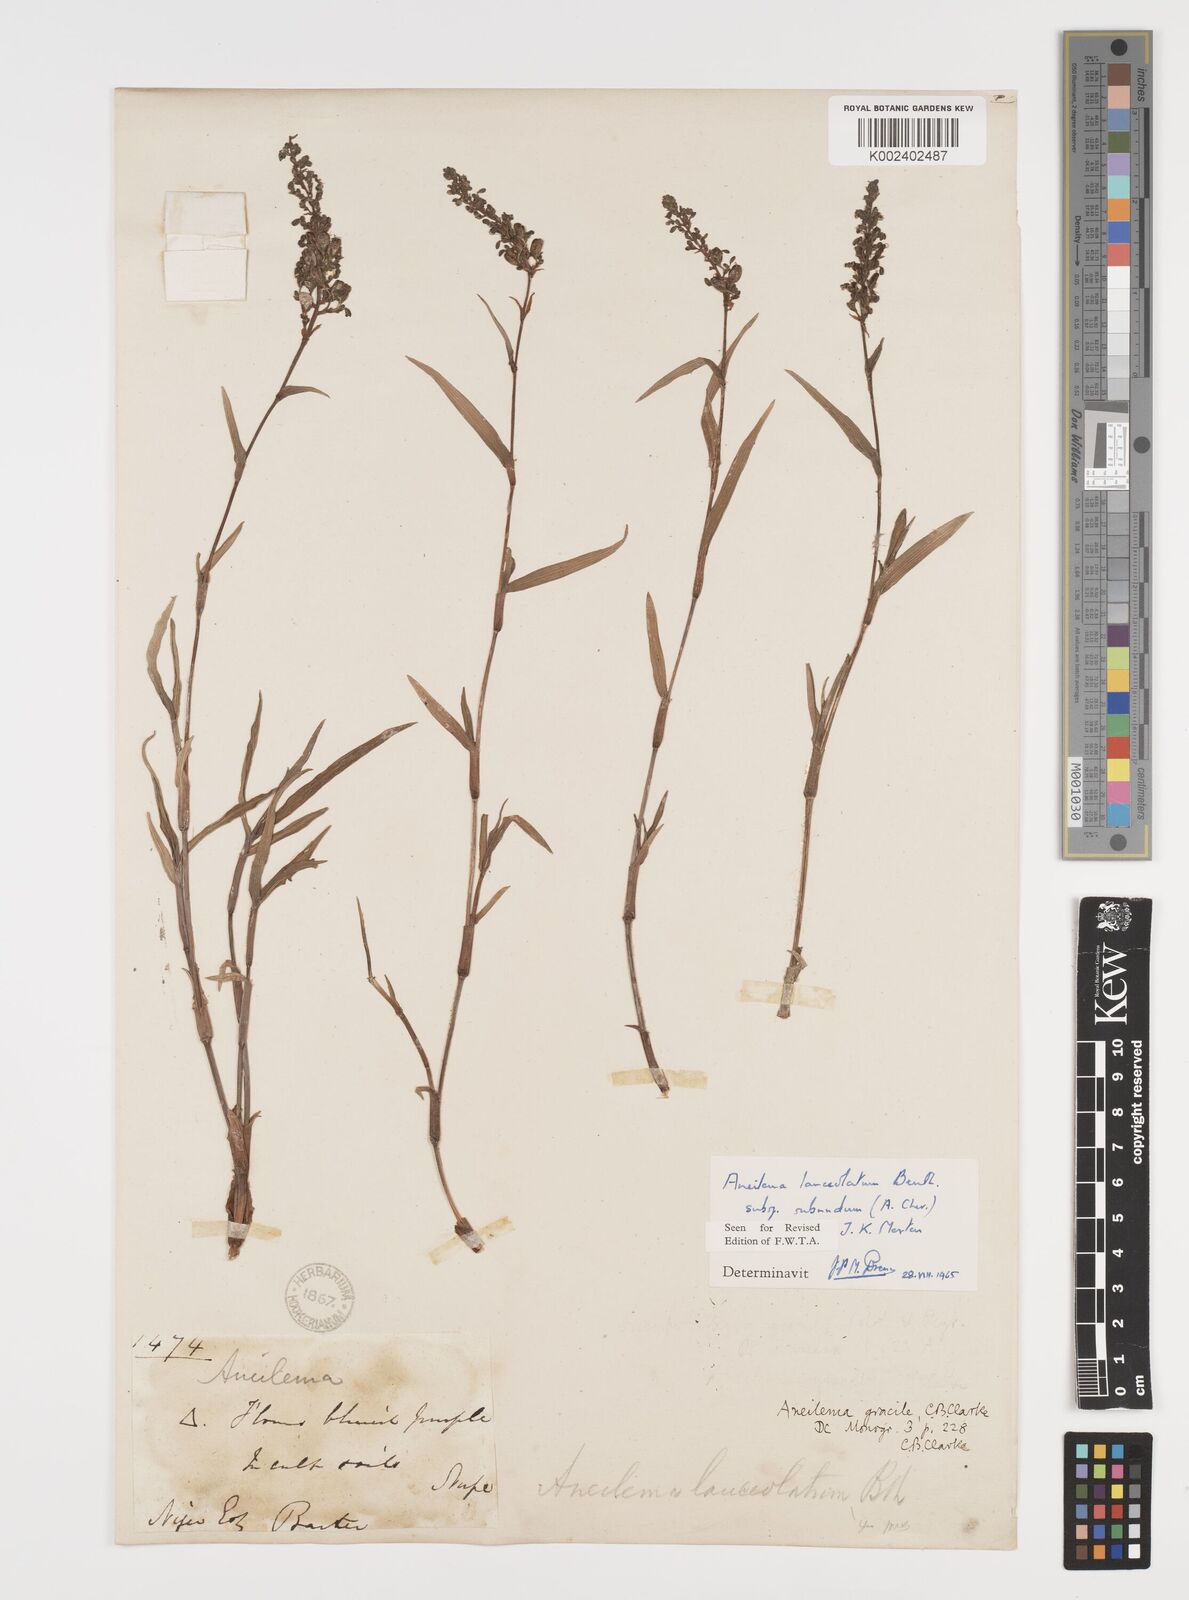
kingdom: Plantae
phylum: Tracheophyta
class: Liliopsida
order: Commelinales
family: Commelinaceae
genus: Aneilema
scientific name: Aneilema lanceolatum
